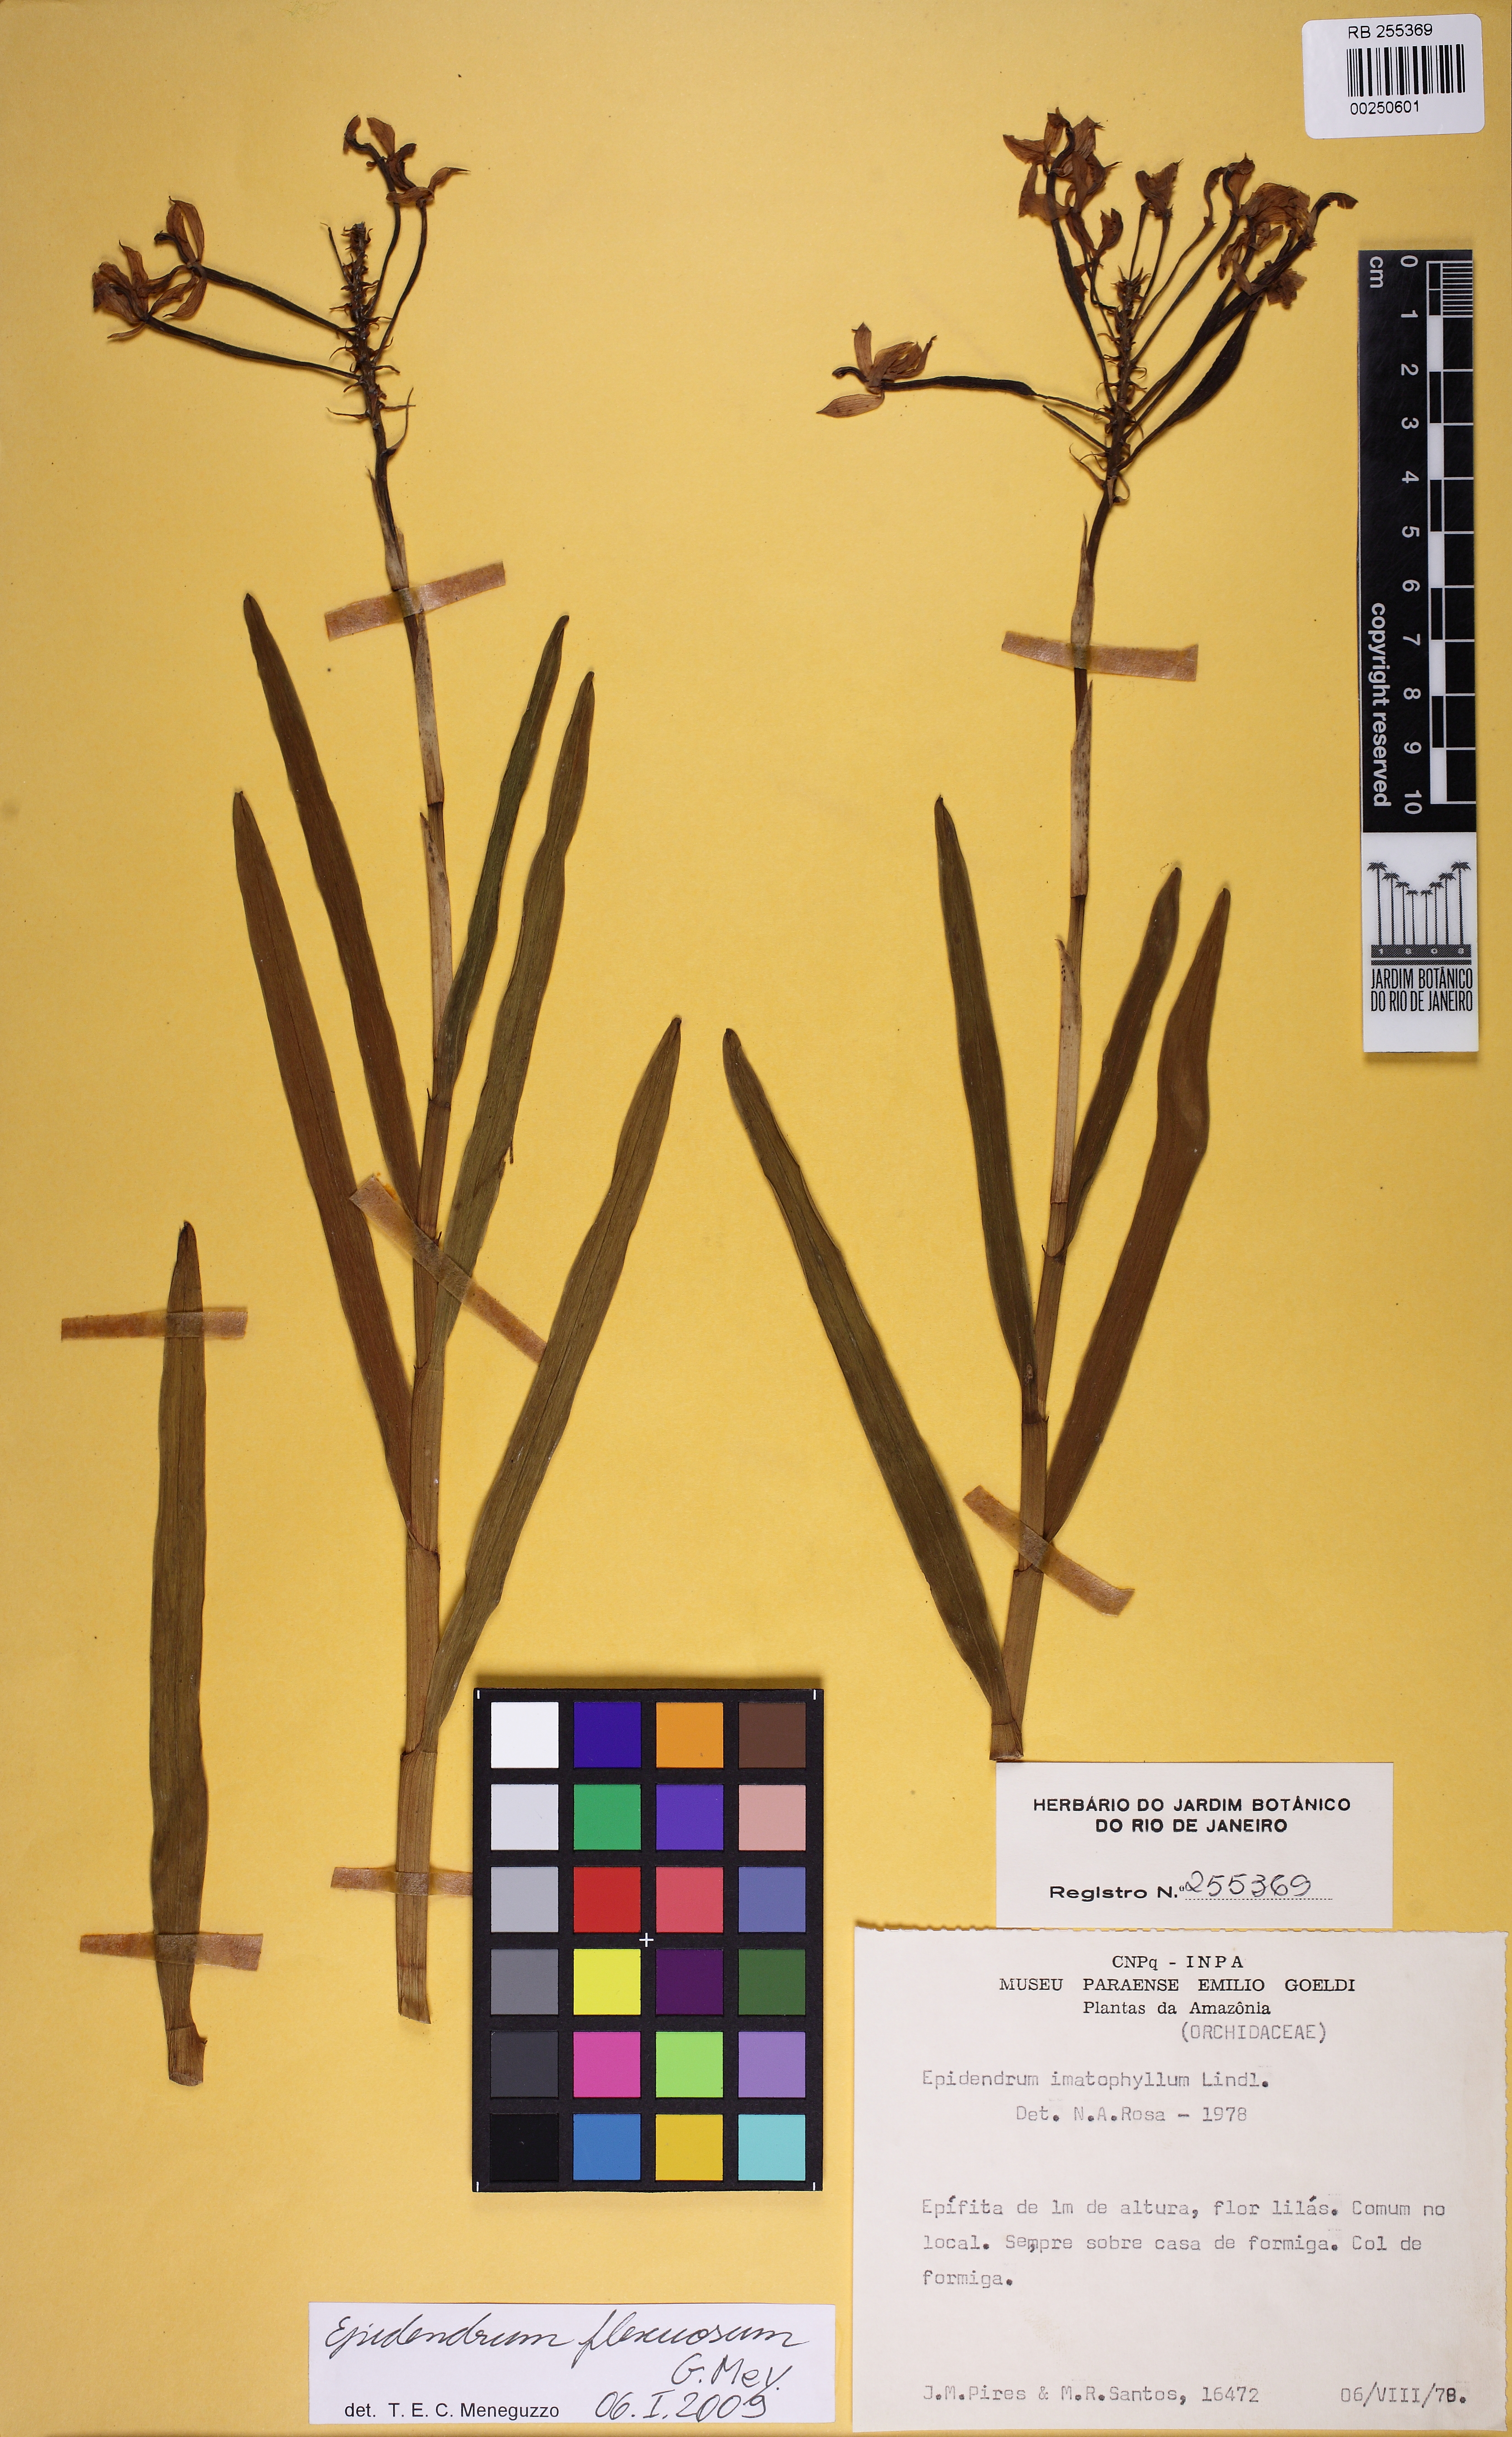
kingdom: Plantae
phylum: Tracheophyta
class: Liliopsida
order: Asparagales
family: Orchidaceae
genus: Epidendrum
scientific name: Epidendrum flexuosum
